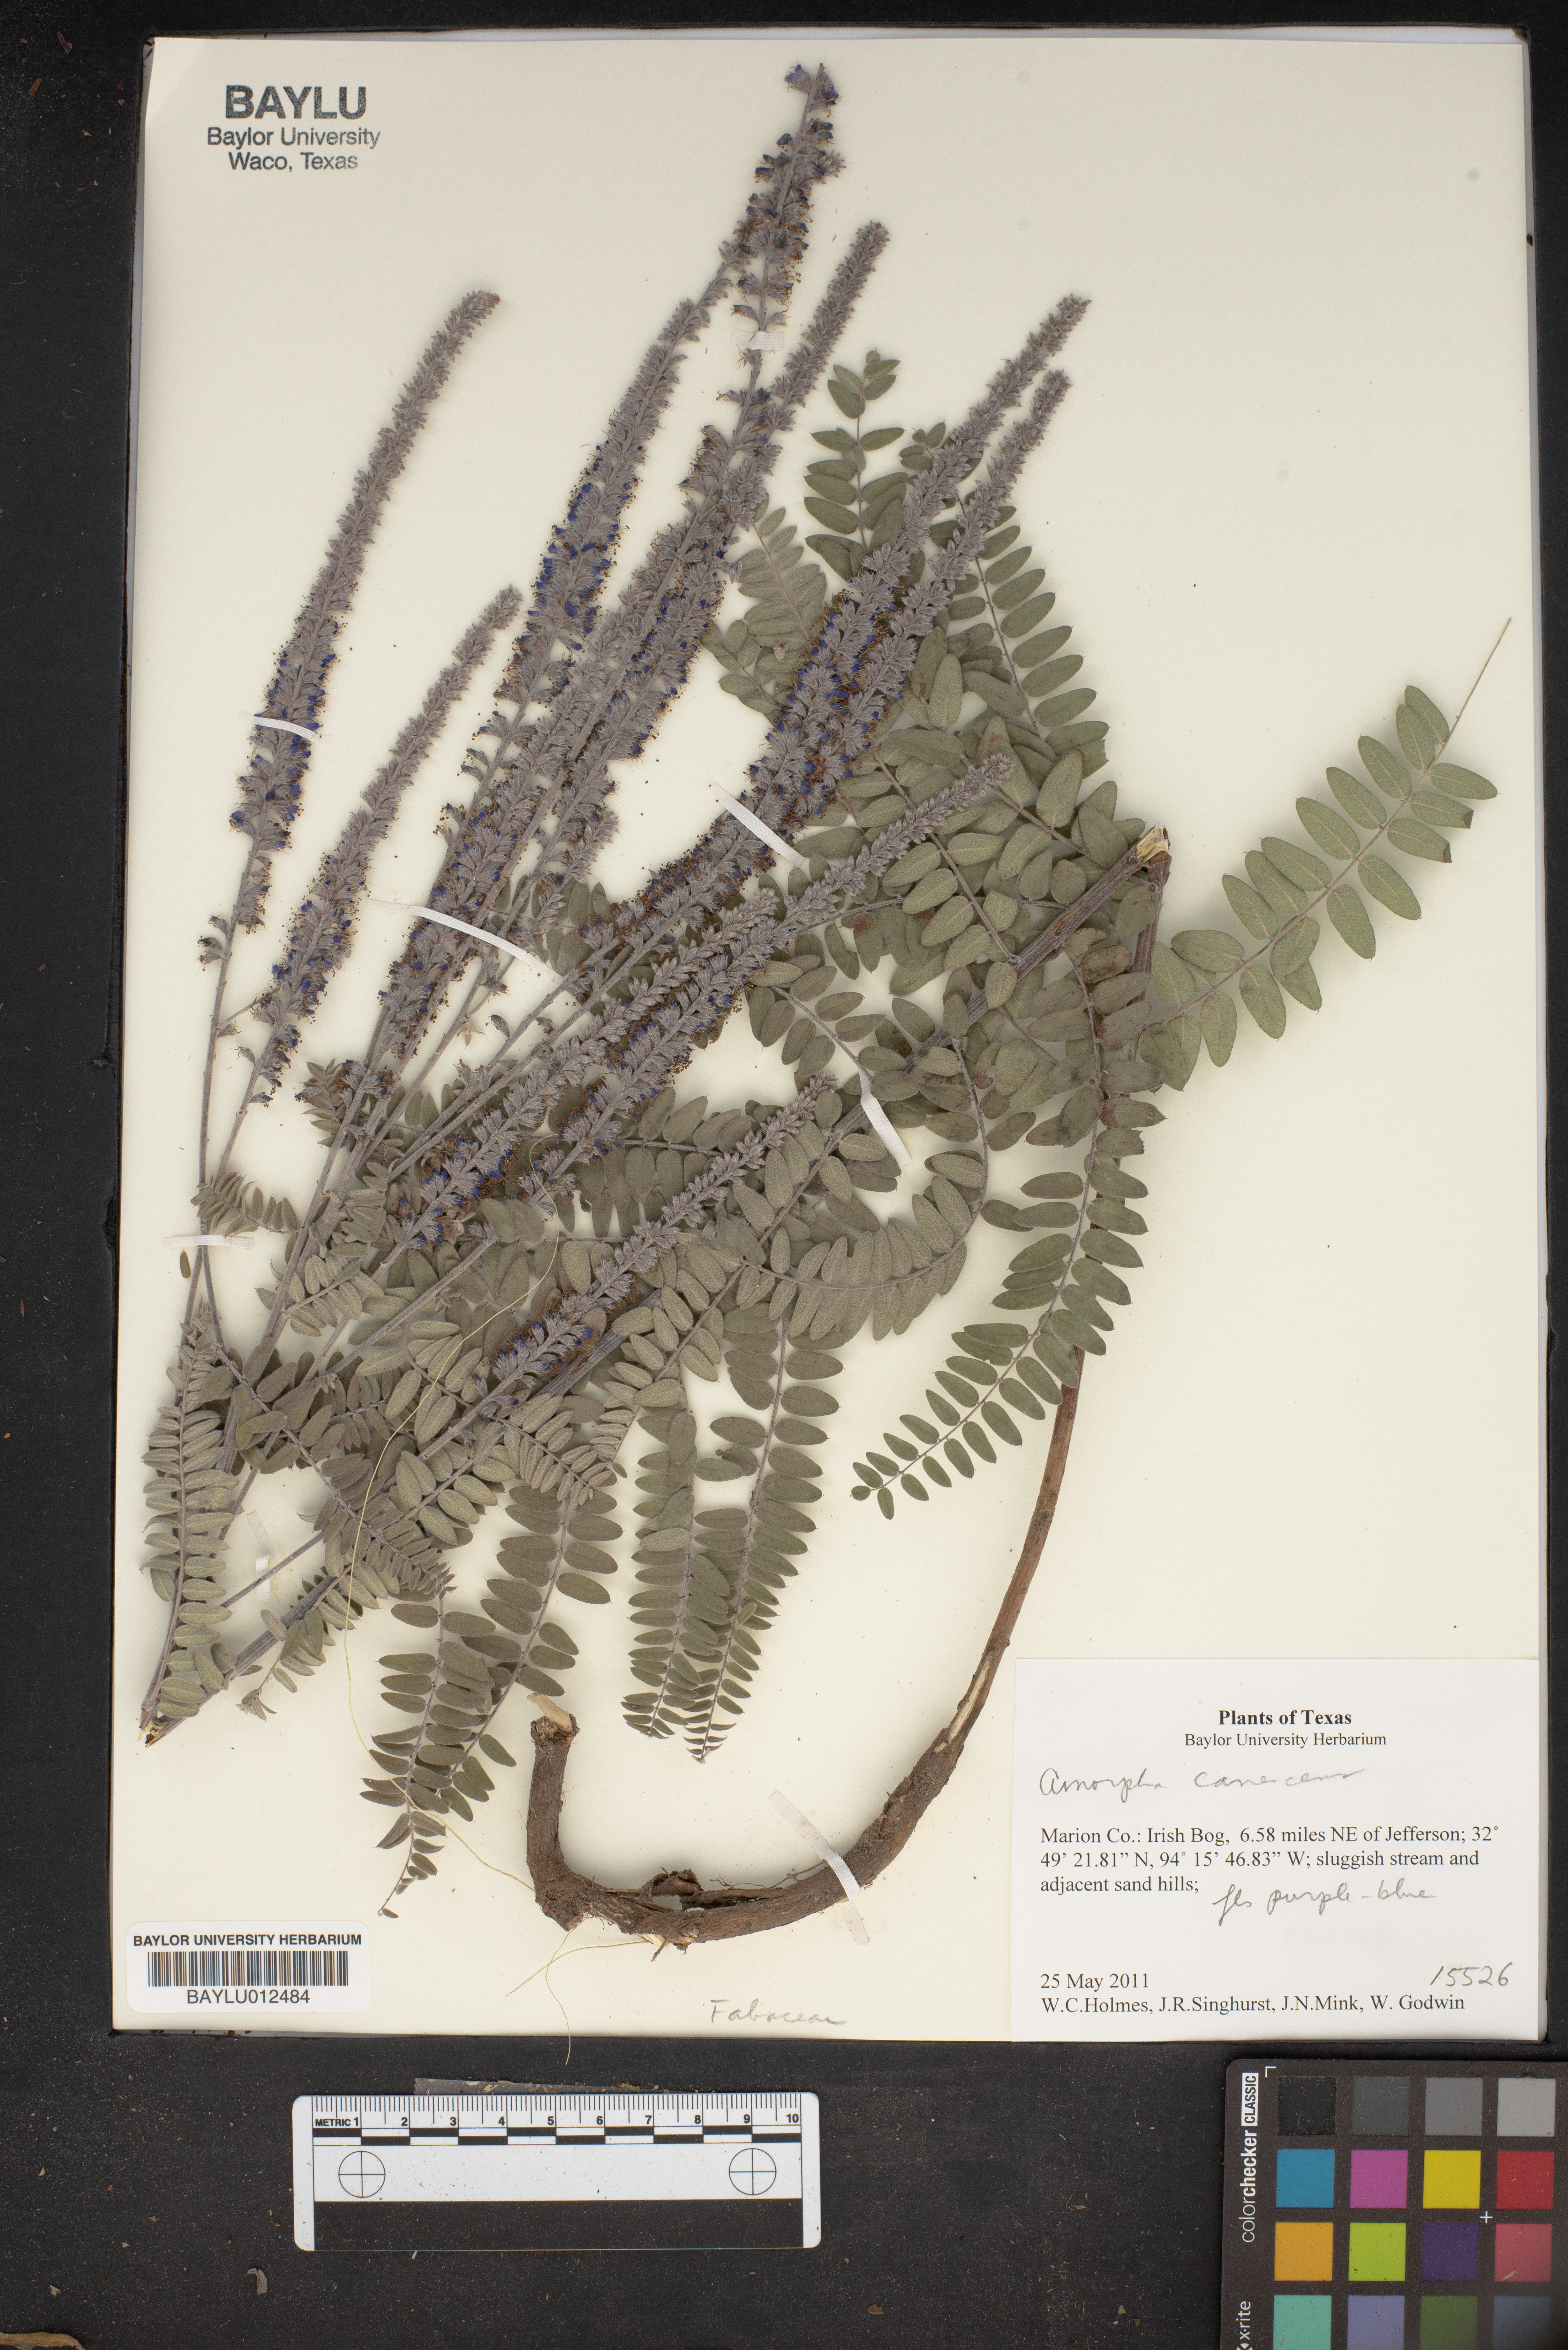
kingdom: Plantae
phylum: Tracheophyta
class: Magnoliopsida
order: Fabales
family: Fabaceae
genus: Amorpha
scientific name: Amorpha canescens
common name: Leadplant
